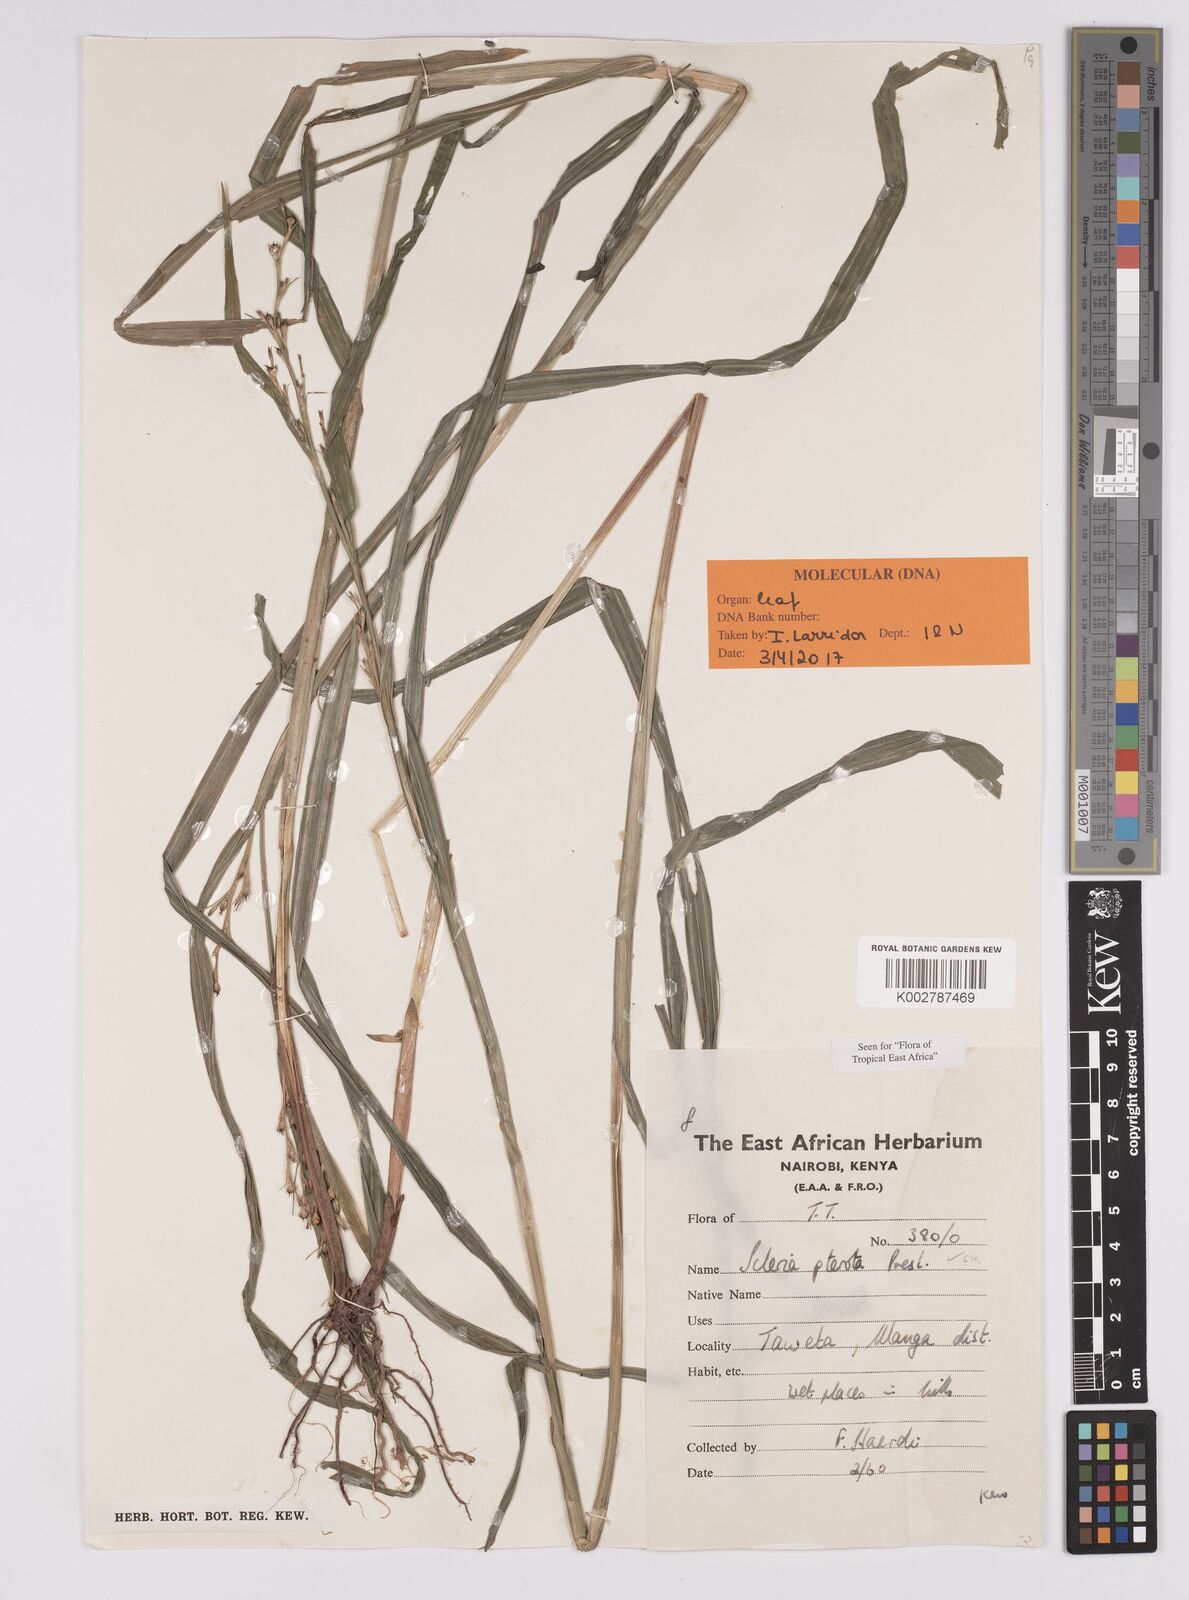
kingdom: Plantae
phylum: Tracheophyta
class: Liliopsida
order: Poales
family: Cyperaceae
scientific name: Cyperaceae
